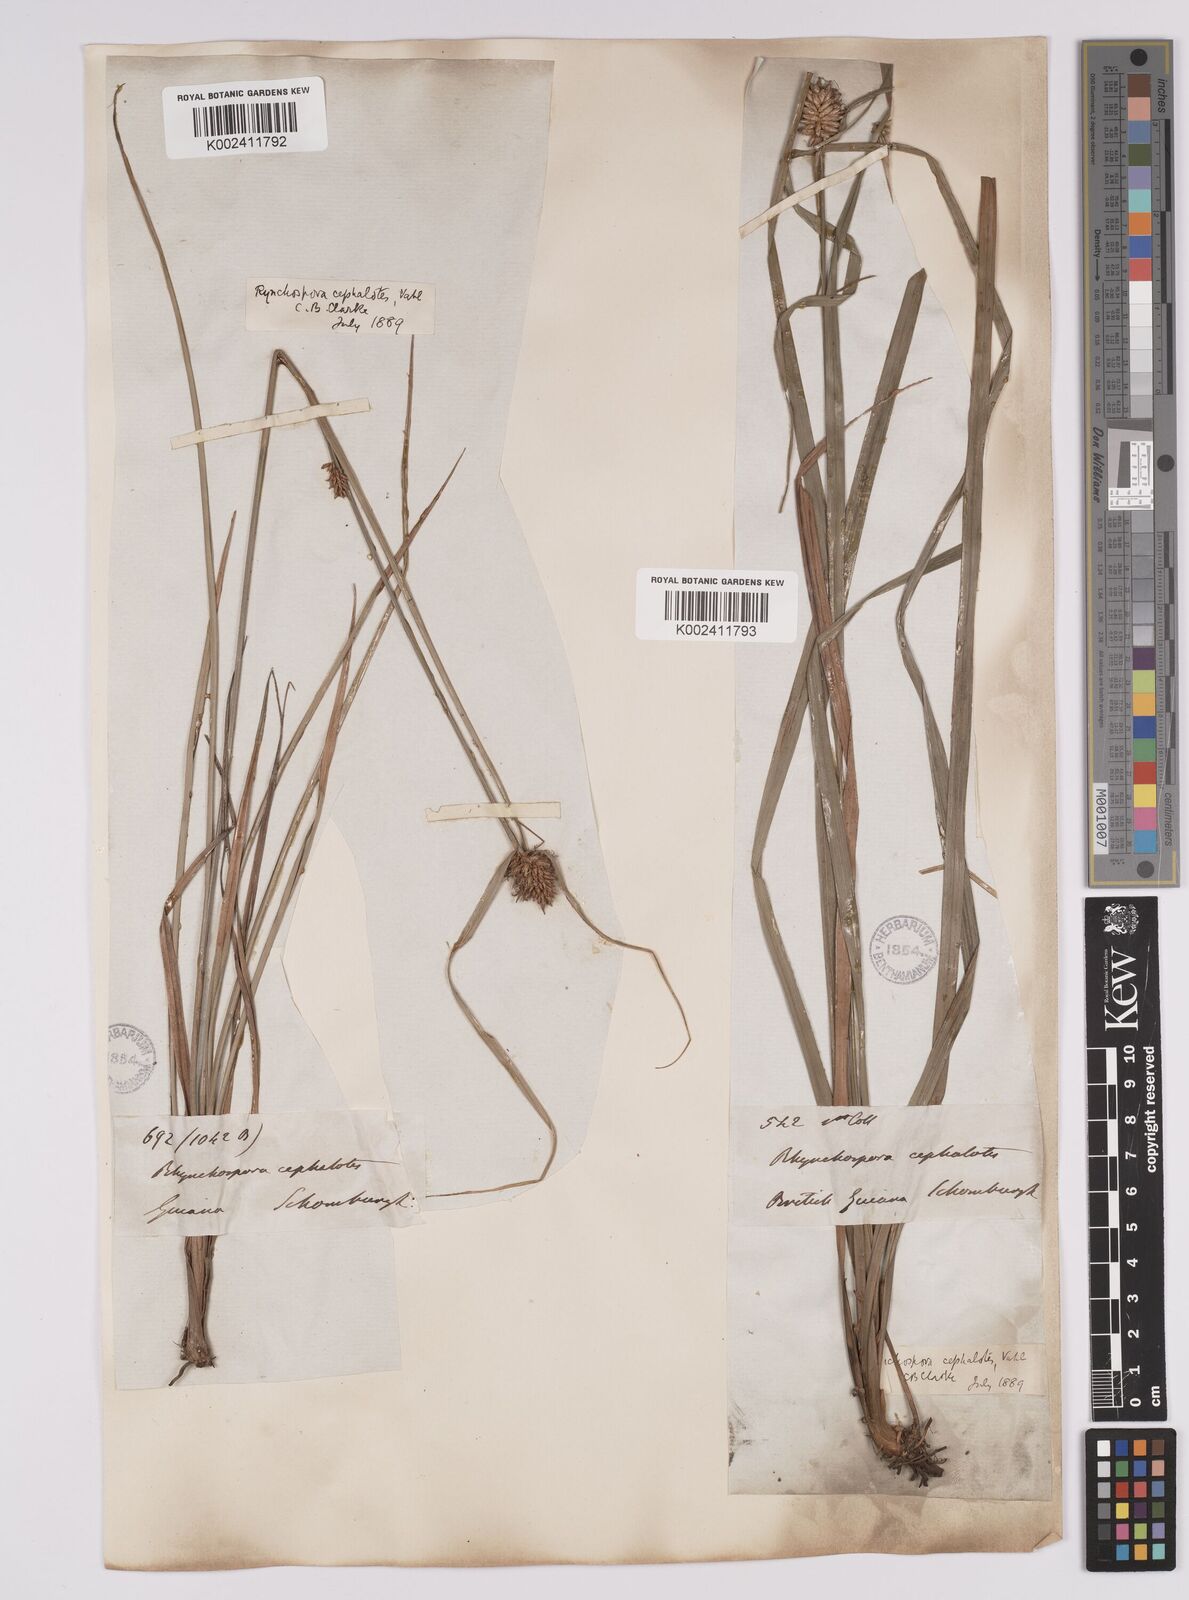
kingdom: Plantae
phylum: Tracheophyta
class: Liliopsida
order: Poales
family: Cyperaceae
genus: Rhynchospora
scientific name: Rhynchospora cephalotes
